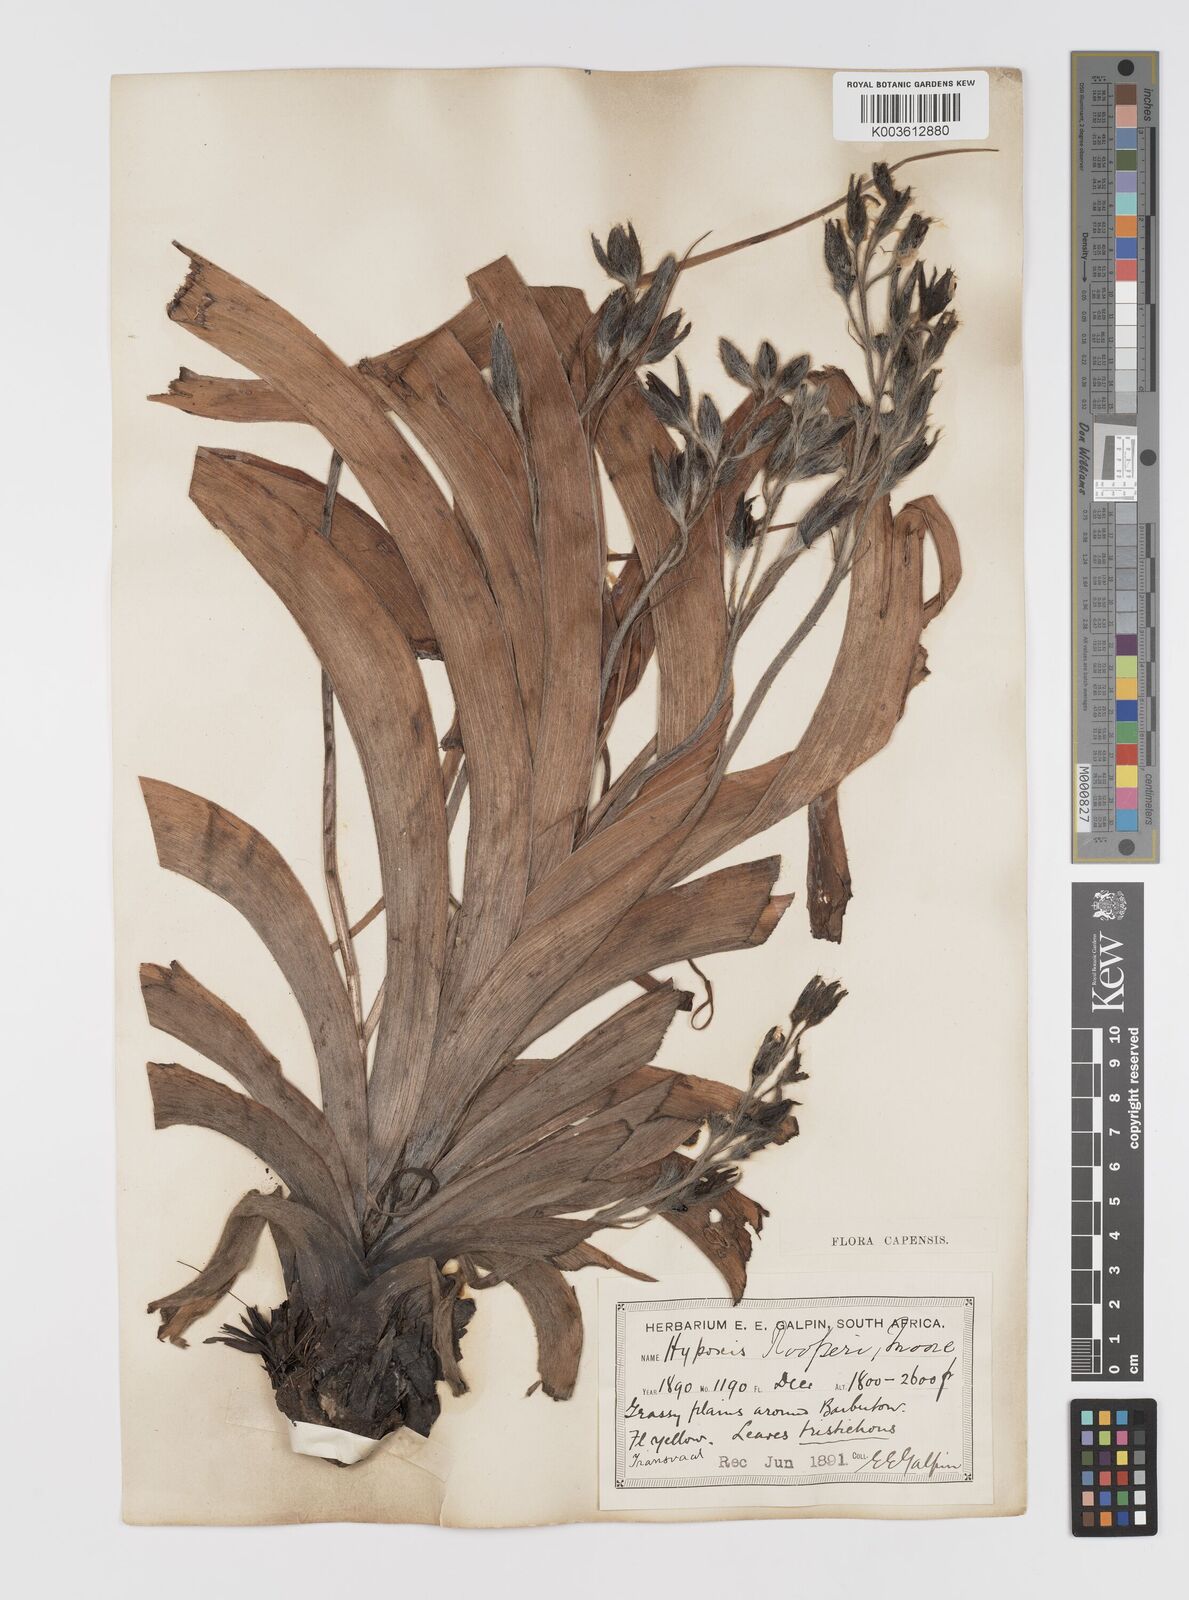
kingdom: Plantae
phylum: Tracheophyta
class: Liliopsida
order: Asparagales
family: Hypoxidaceae
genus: Hypoxis
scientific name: Hypoxis hemerocallidea
